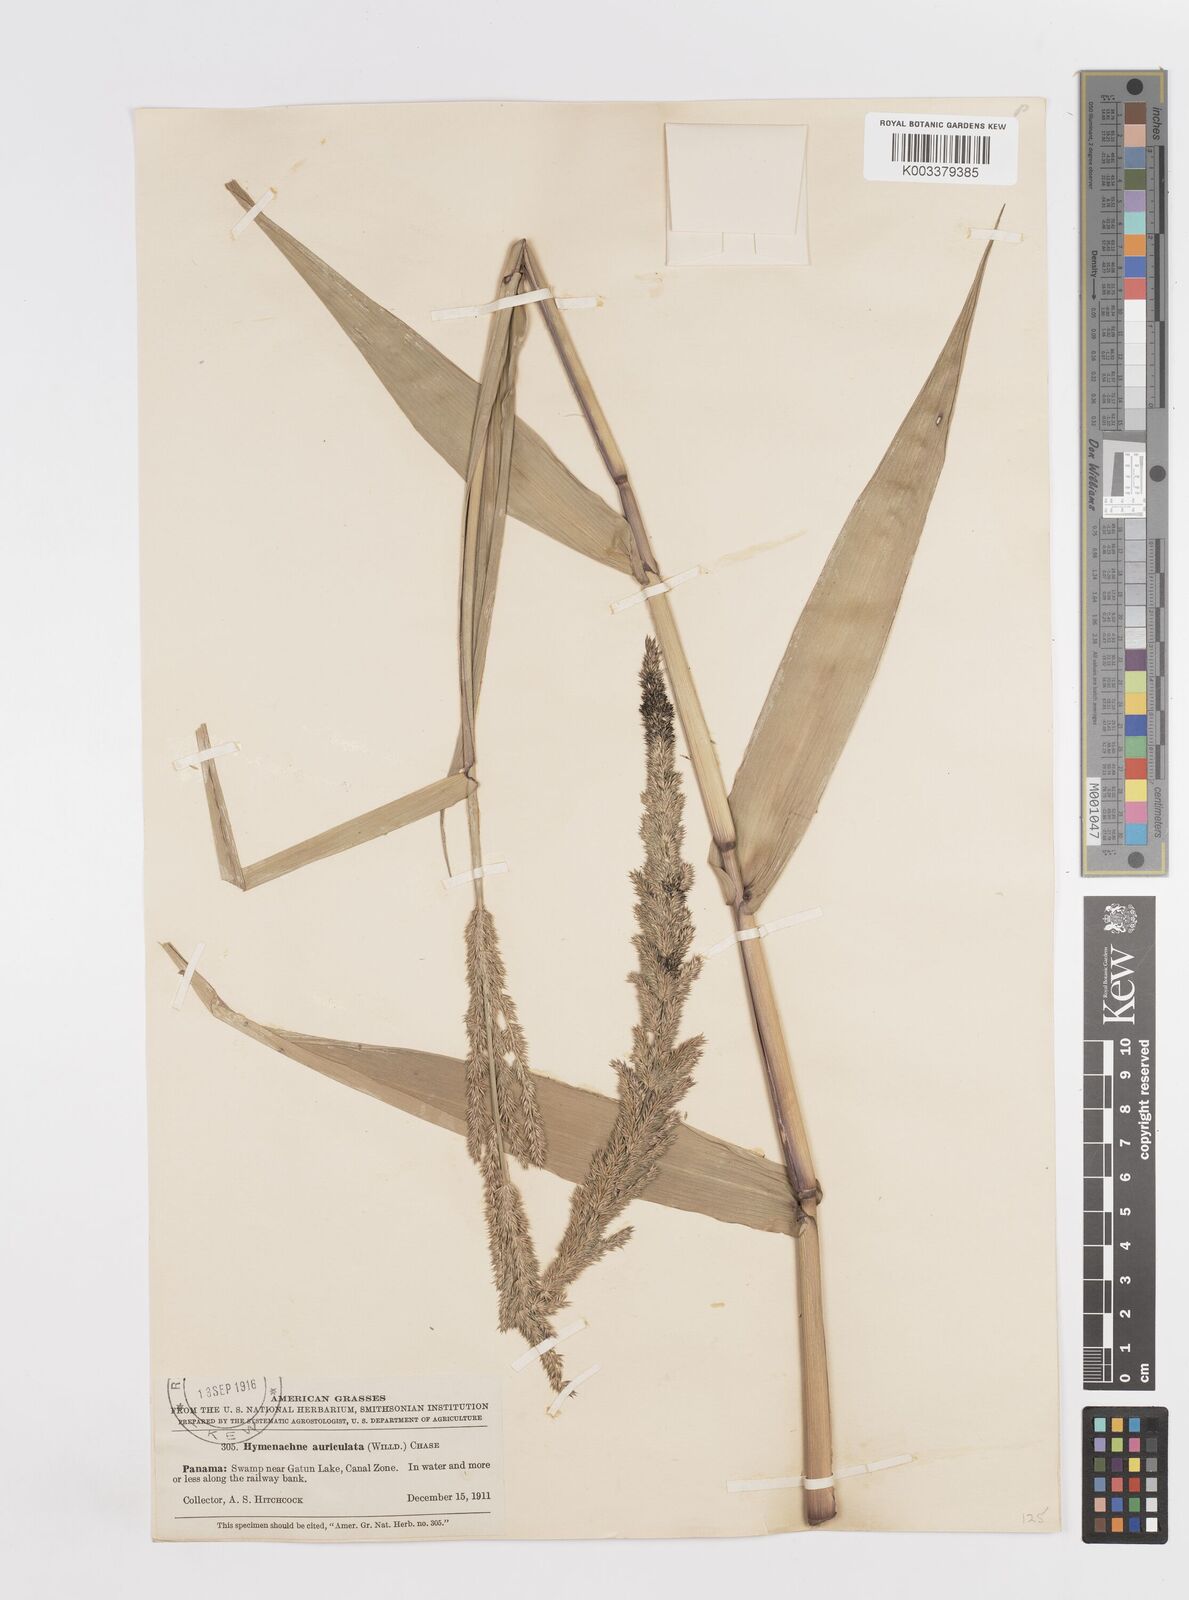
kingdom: Plantae
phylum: Tracheophyta
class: Liliopsida
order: Poales
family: Poaceae
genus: Hymenachne
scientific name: Hymenachne donacifolia
